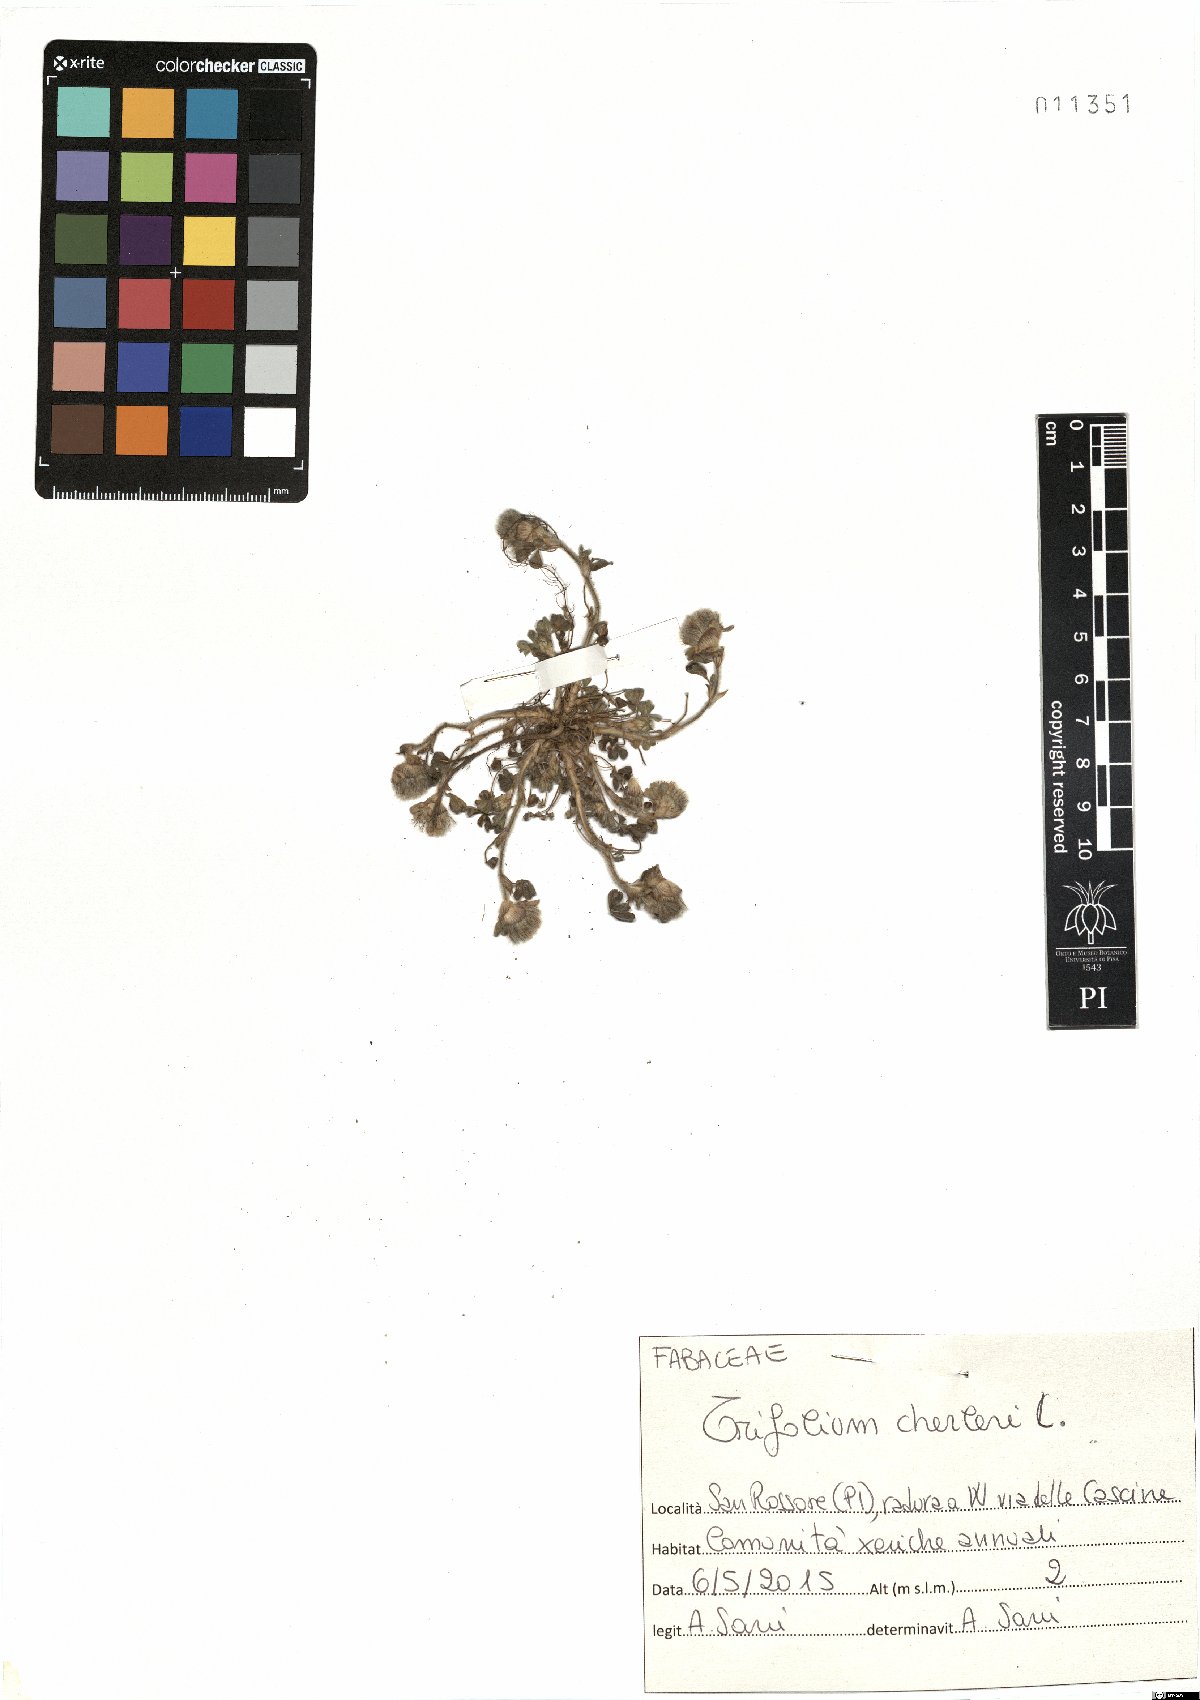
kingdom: Plantae
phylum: Tracheophyta
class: Magnoliopsida
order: Fabales
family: Fabaceae
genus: Trifolium
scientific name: Trifolium cherleri
